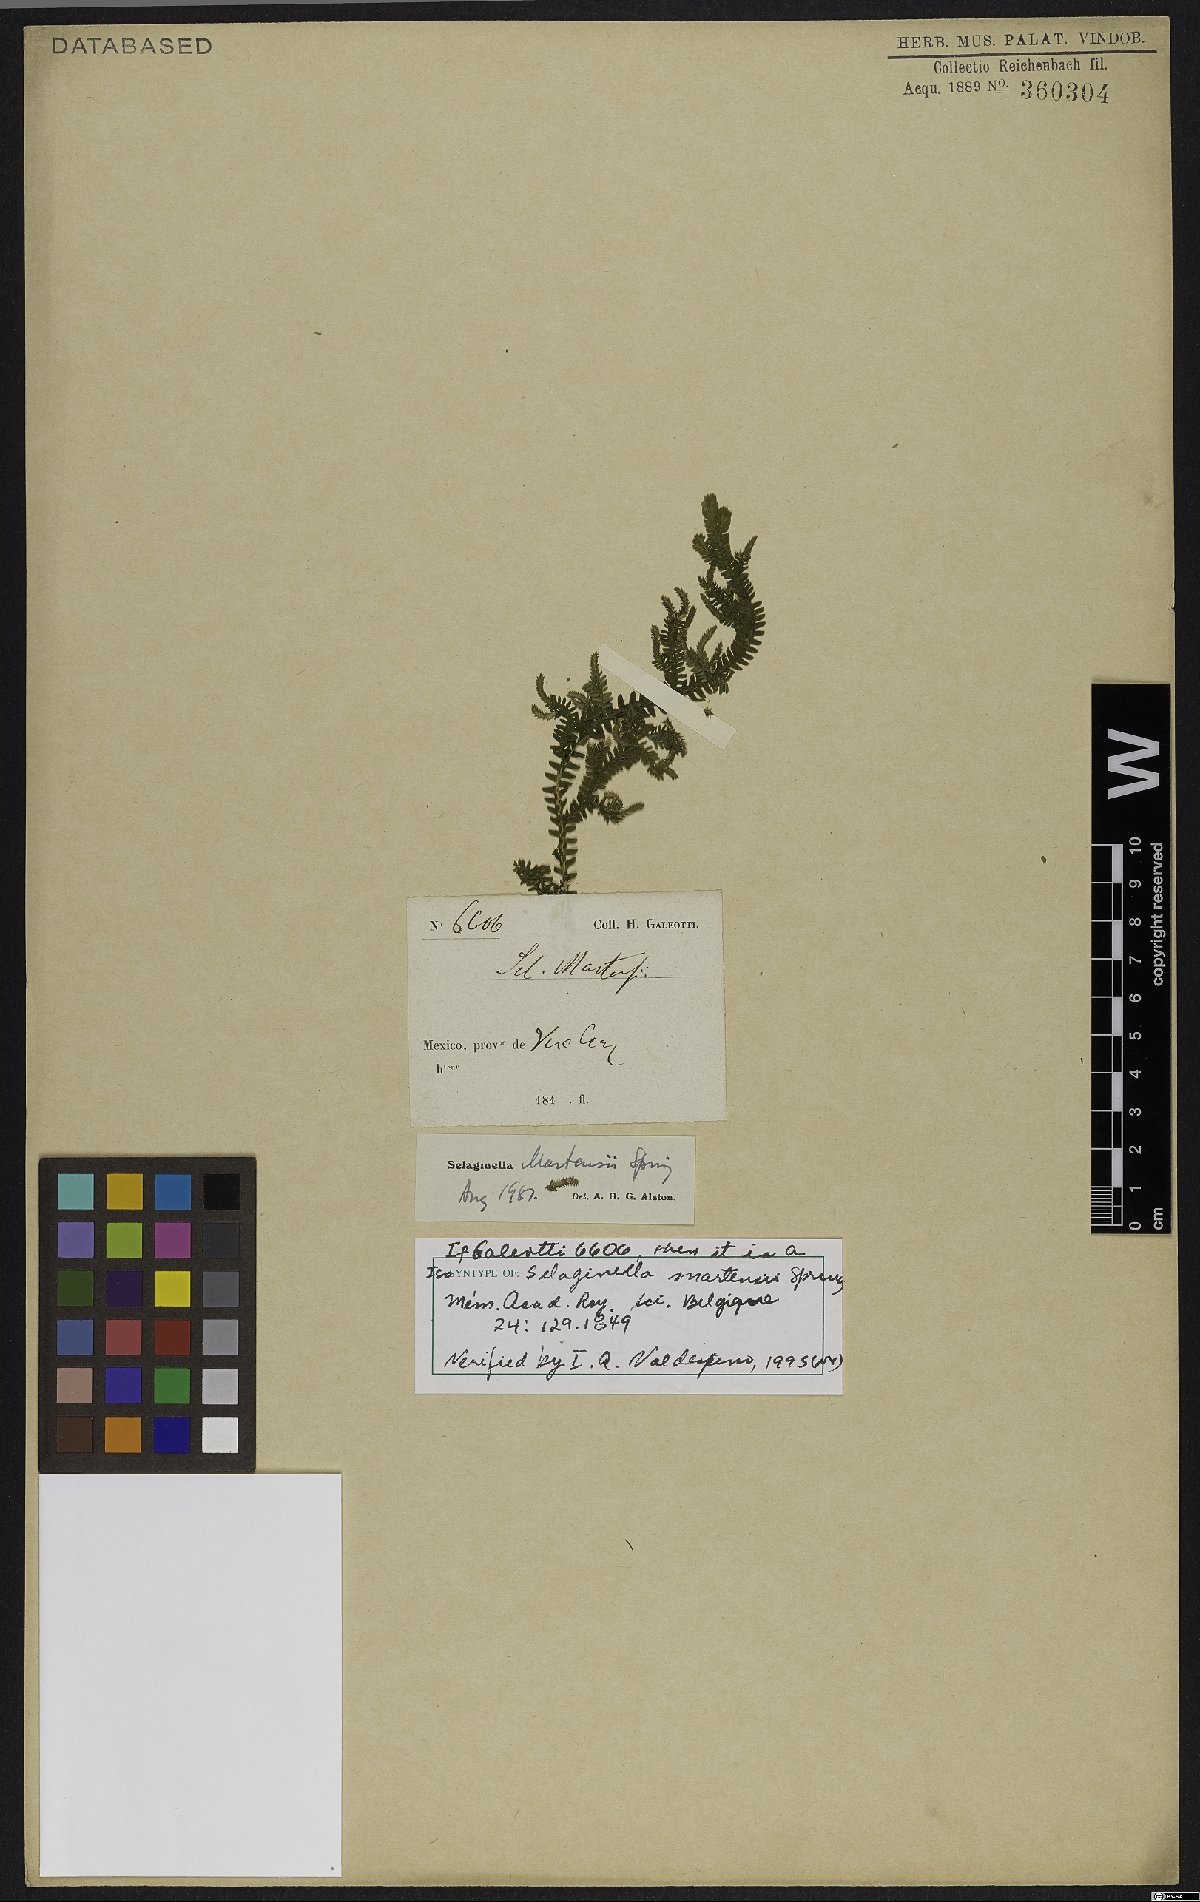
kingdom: Plantae
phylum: Tracheophyta
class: Lycopodiopsida
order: Selaginellales
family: Selaginellaceae
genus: Selaginella
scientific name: Selaginella martensii
